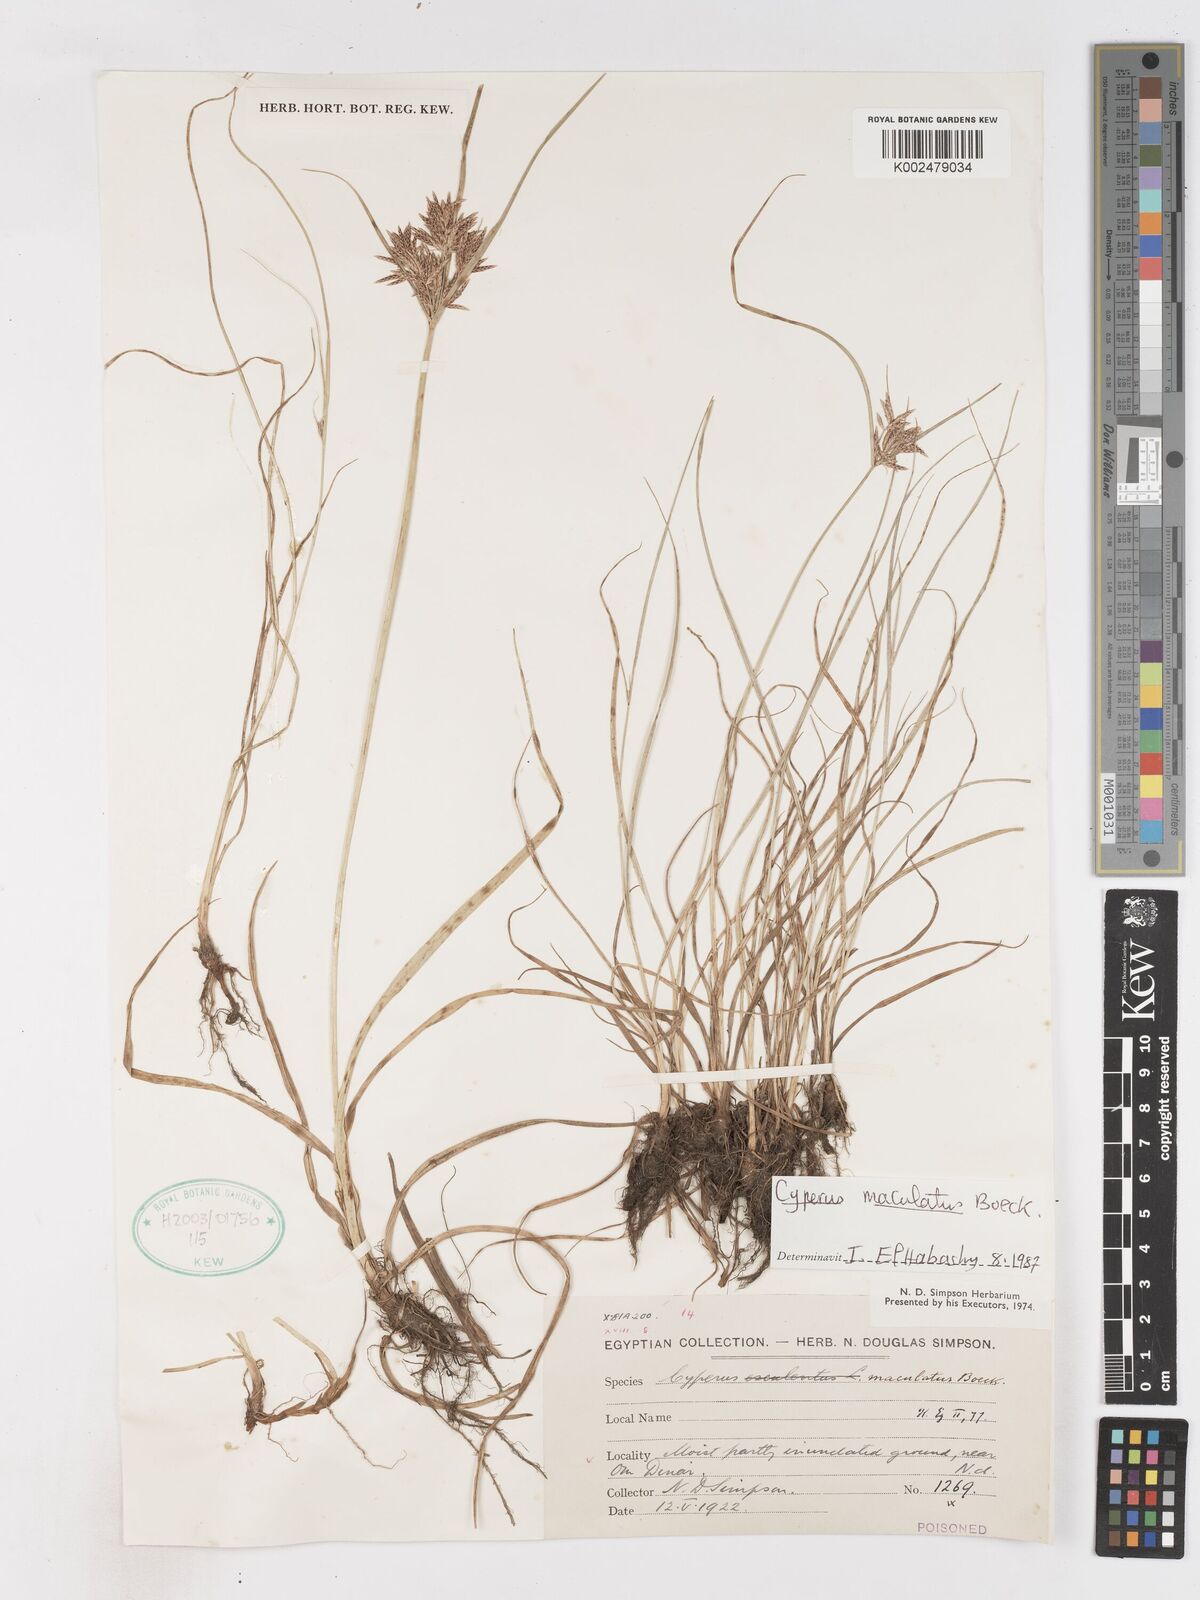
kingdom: Plantae
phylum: Tracheophyta
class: Liliopsida
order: Poales
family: Cyperaceae
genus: Cyperus
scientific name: Cyperus maculatus
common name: Maculated sedge
